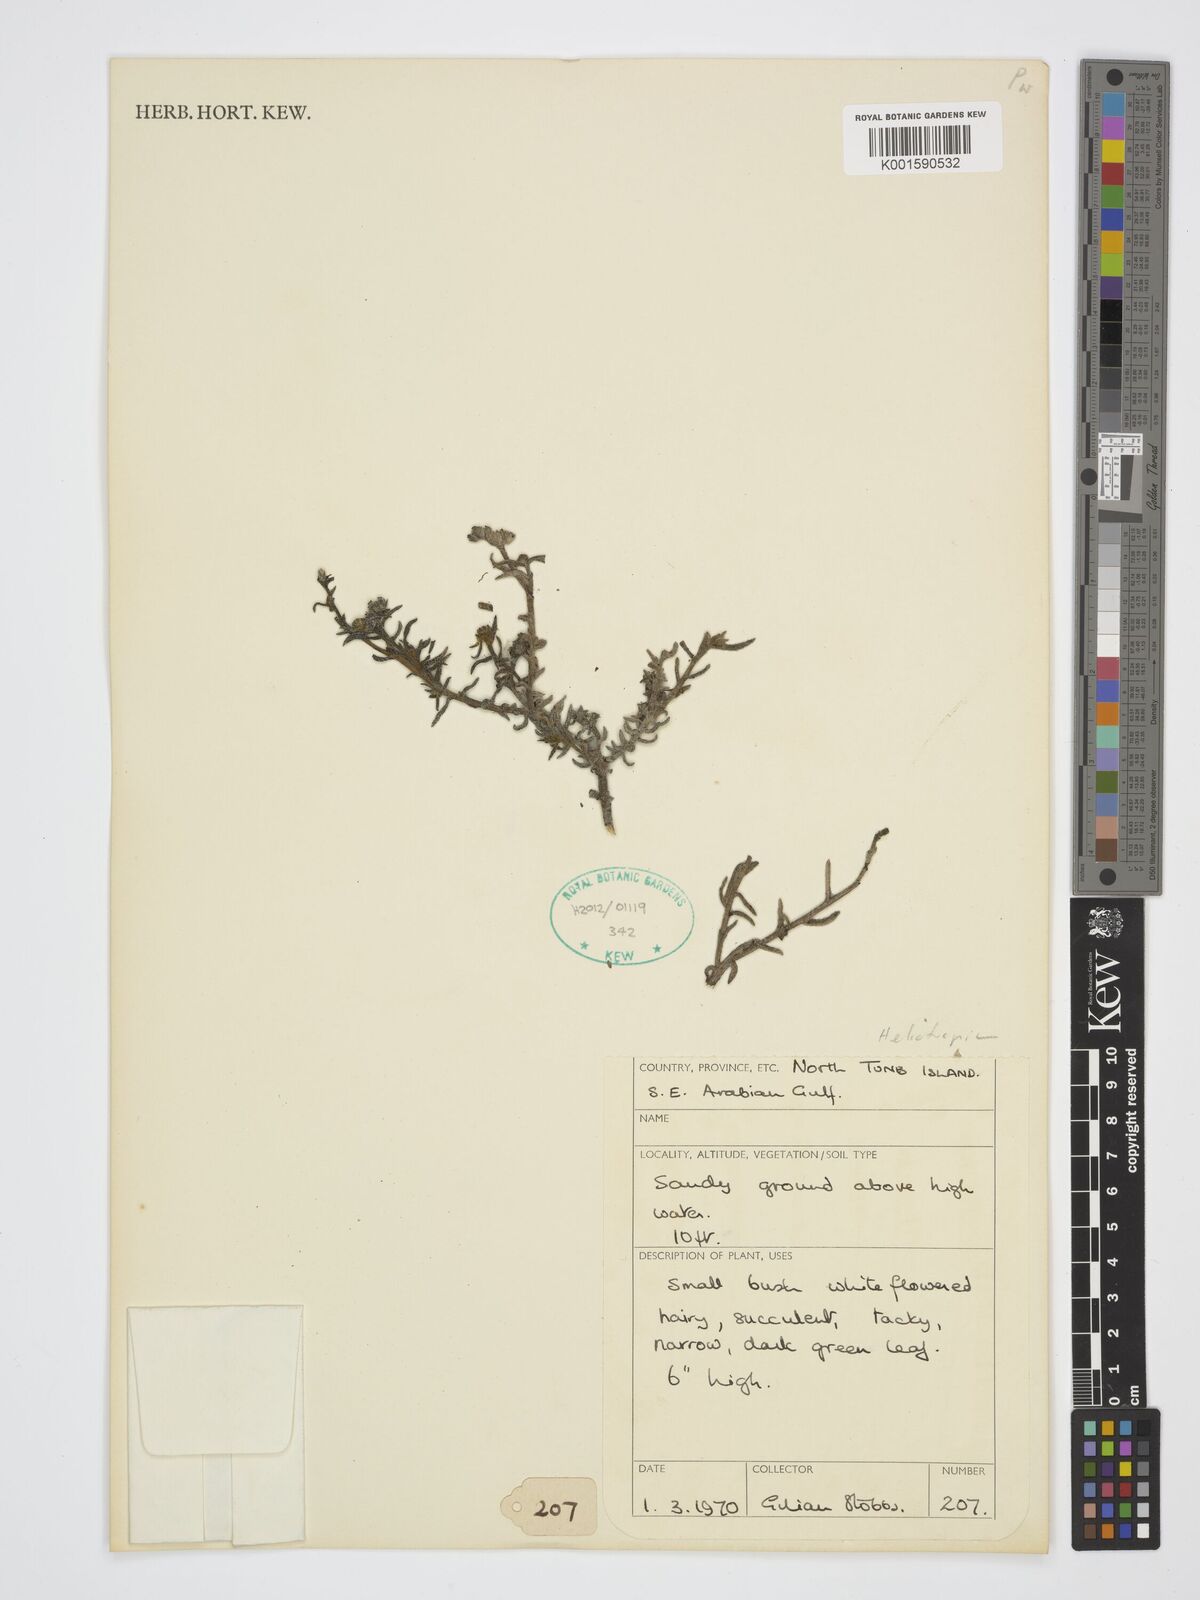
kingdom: Plantae
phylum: Tracheophyta
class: Magnoliopsida
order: Boraginales
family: Heliotropiaceae
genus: Heliotropium
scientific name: Heliotropium
